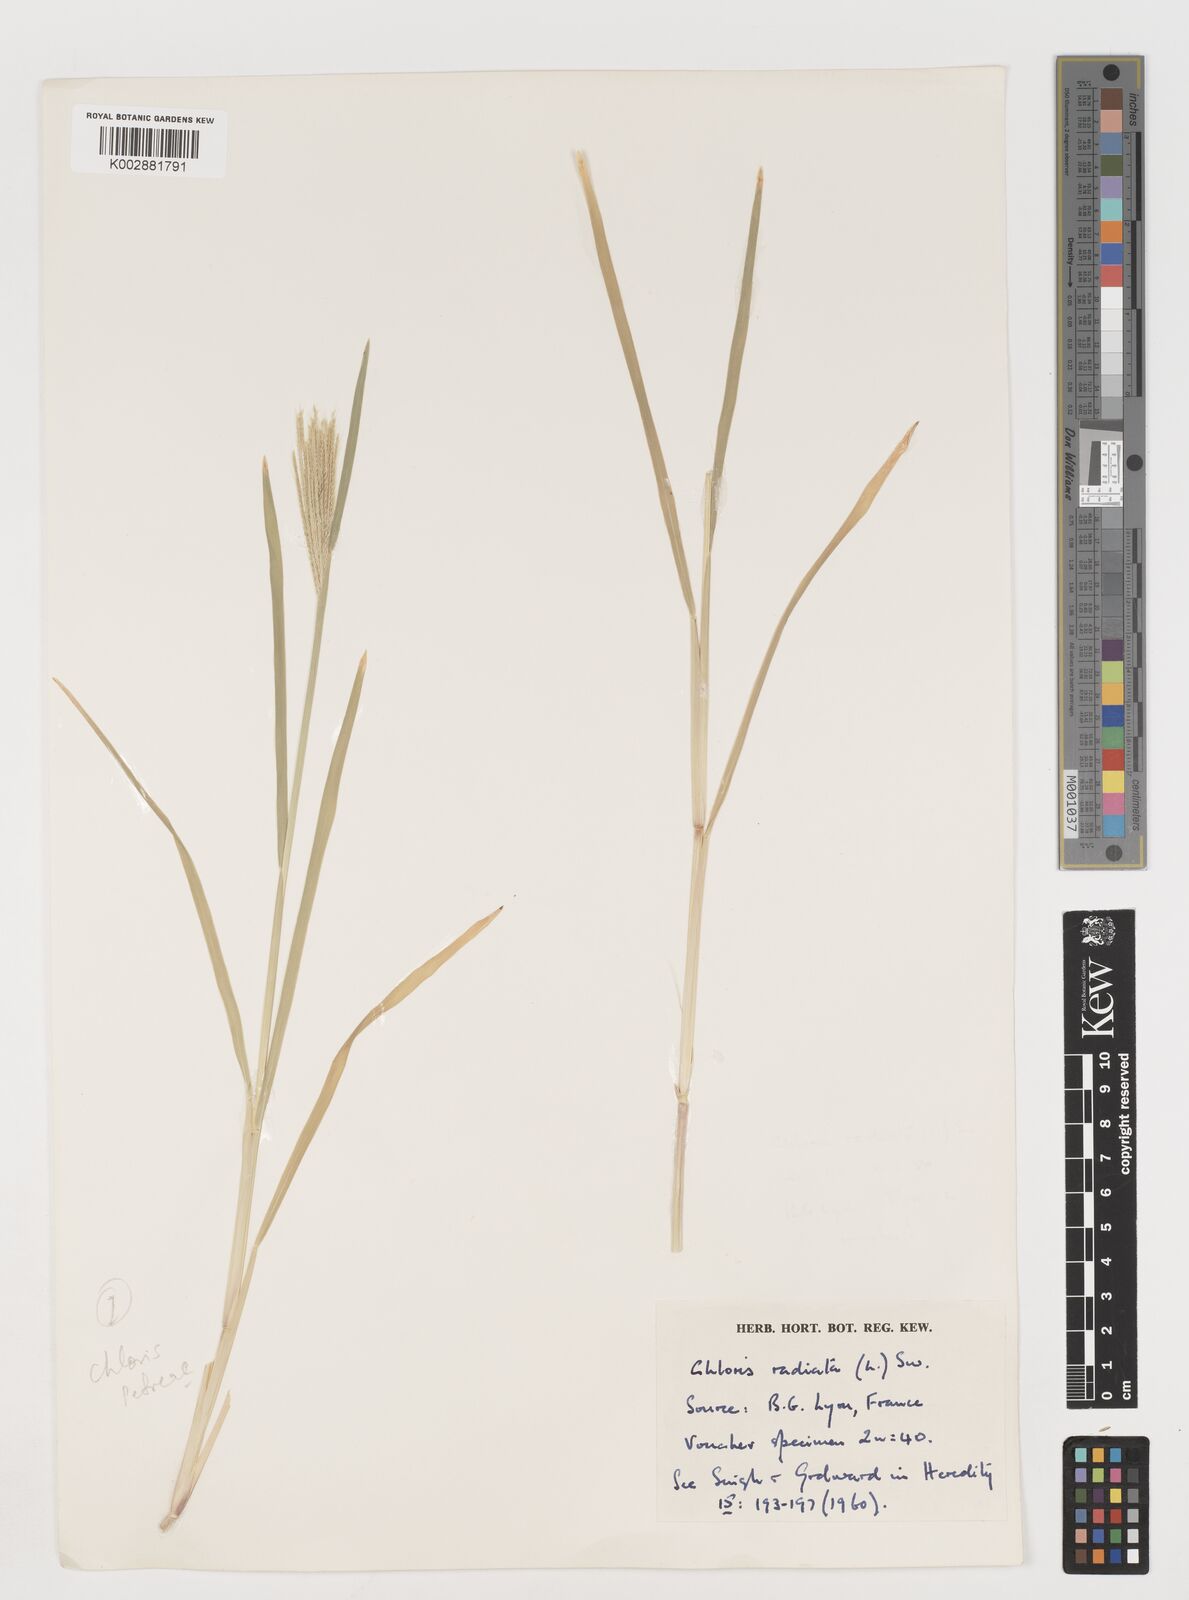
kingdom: Plantae
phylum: Tracheophyta
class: Liliopsida
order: Poales
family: Poaceae
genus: Chloris
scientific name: Chloris radiata
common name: Radiate fingergrass
